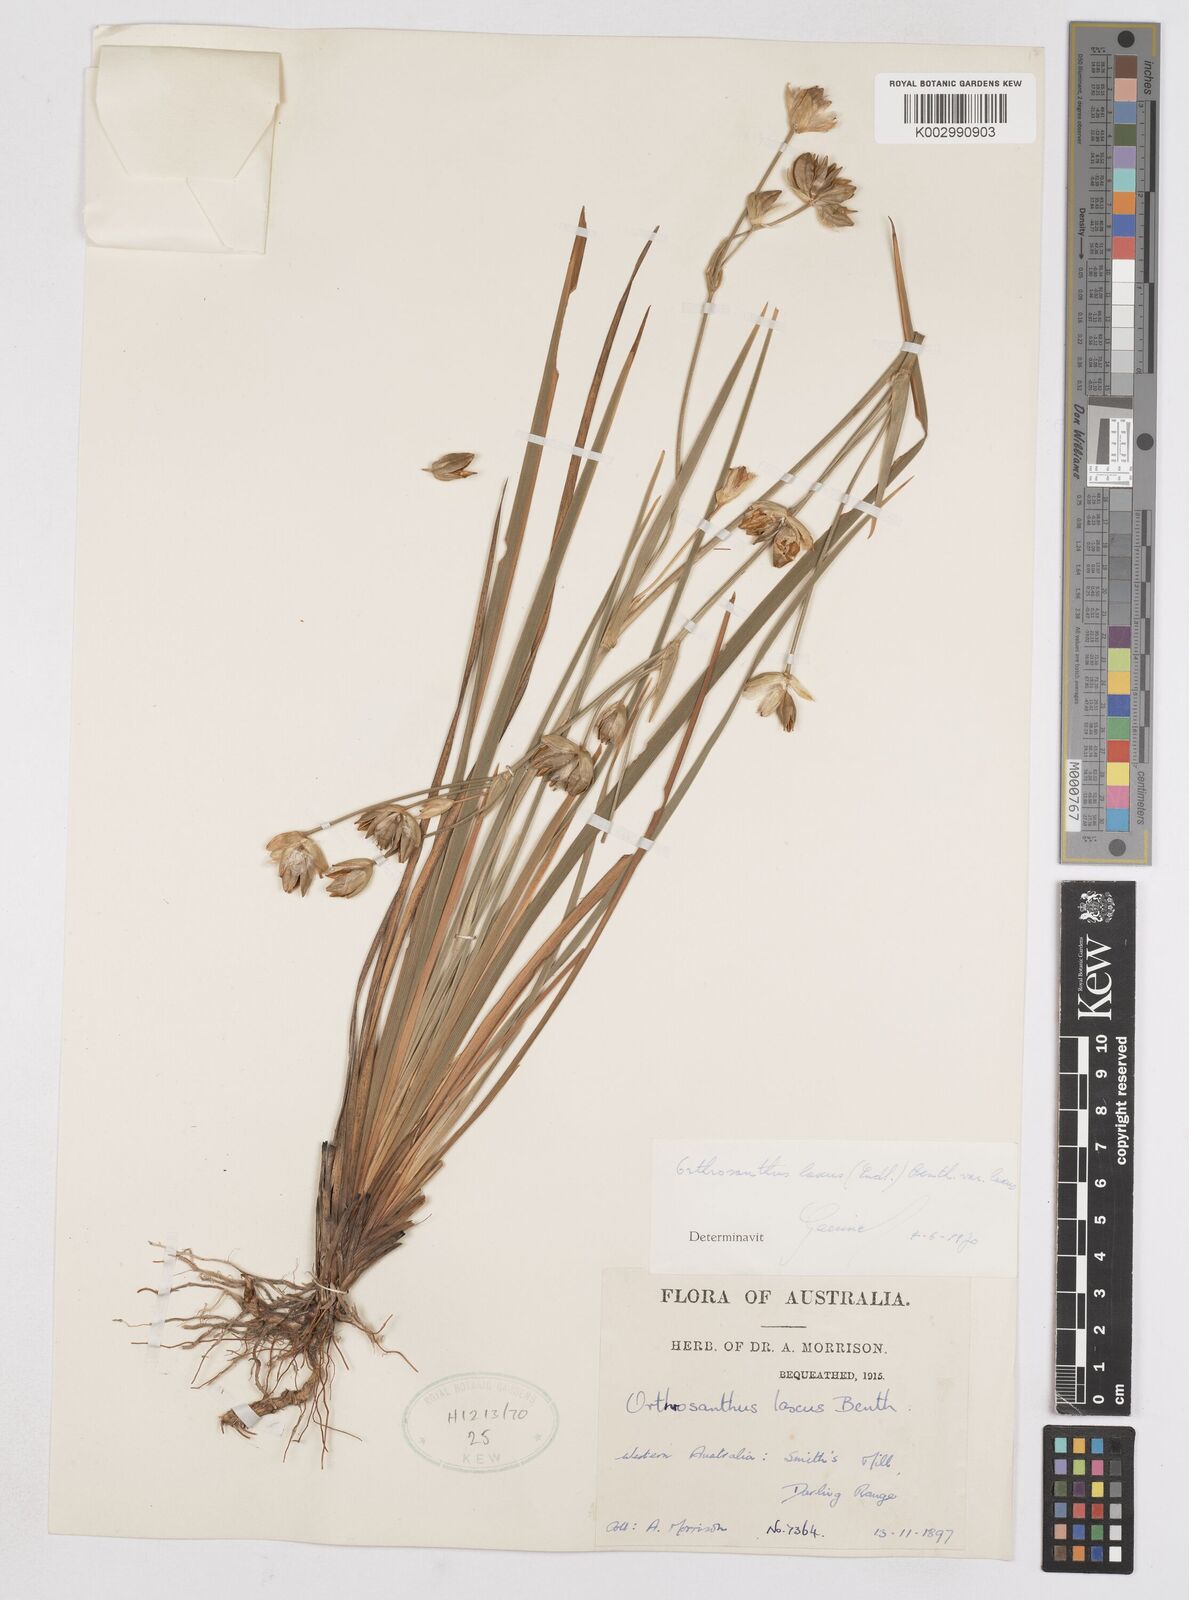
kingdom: Plantae
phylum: Tracheophyta
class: Liliopsida
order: Asparagales
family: Iridaceae
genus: Orthrosanthus
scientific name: Orthrosanthus laxus
